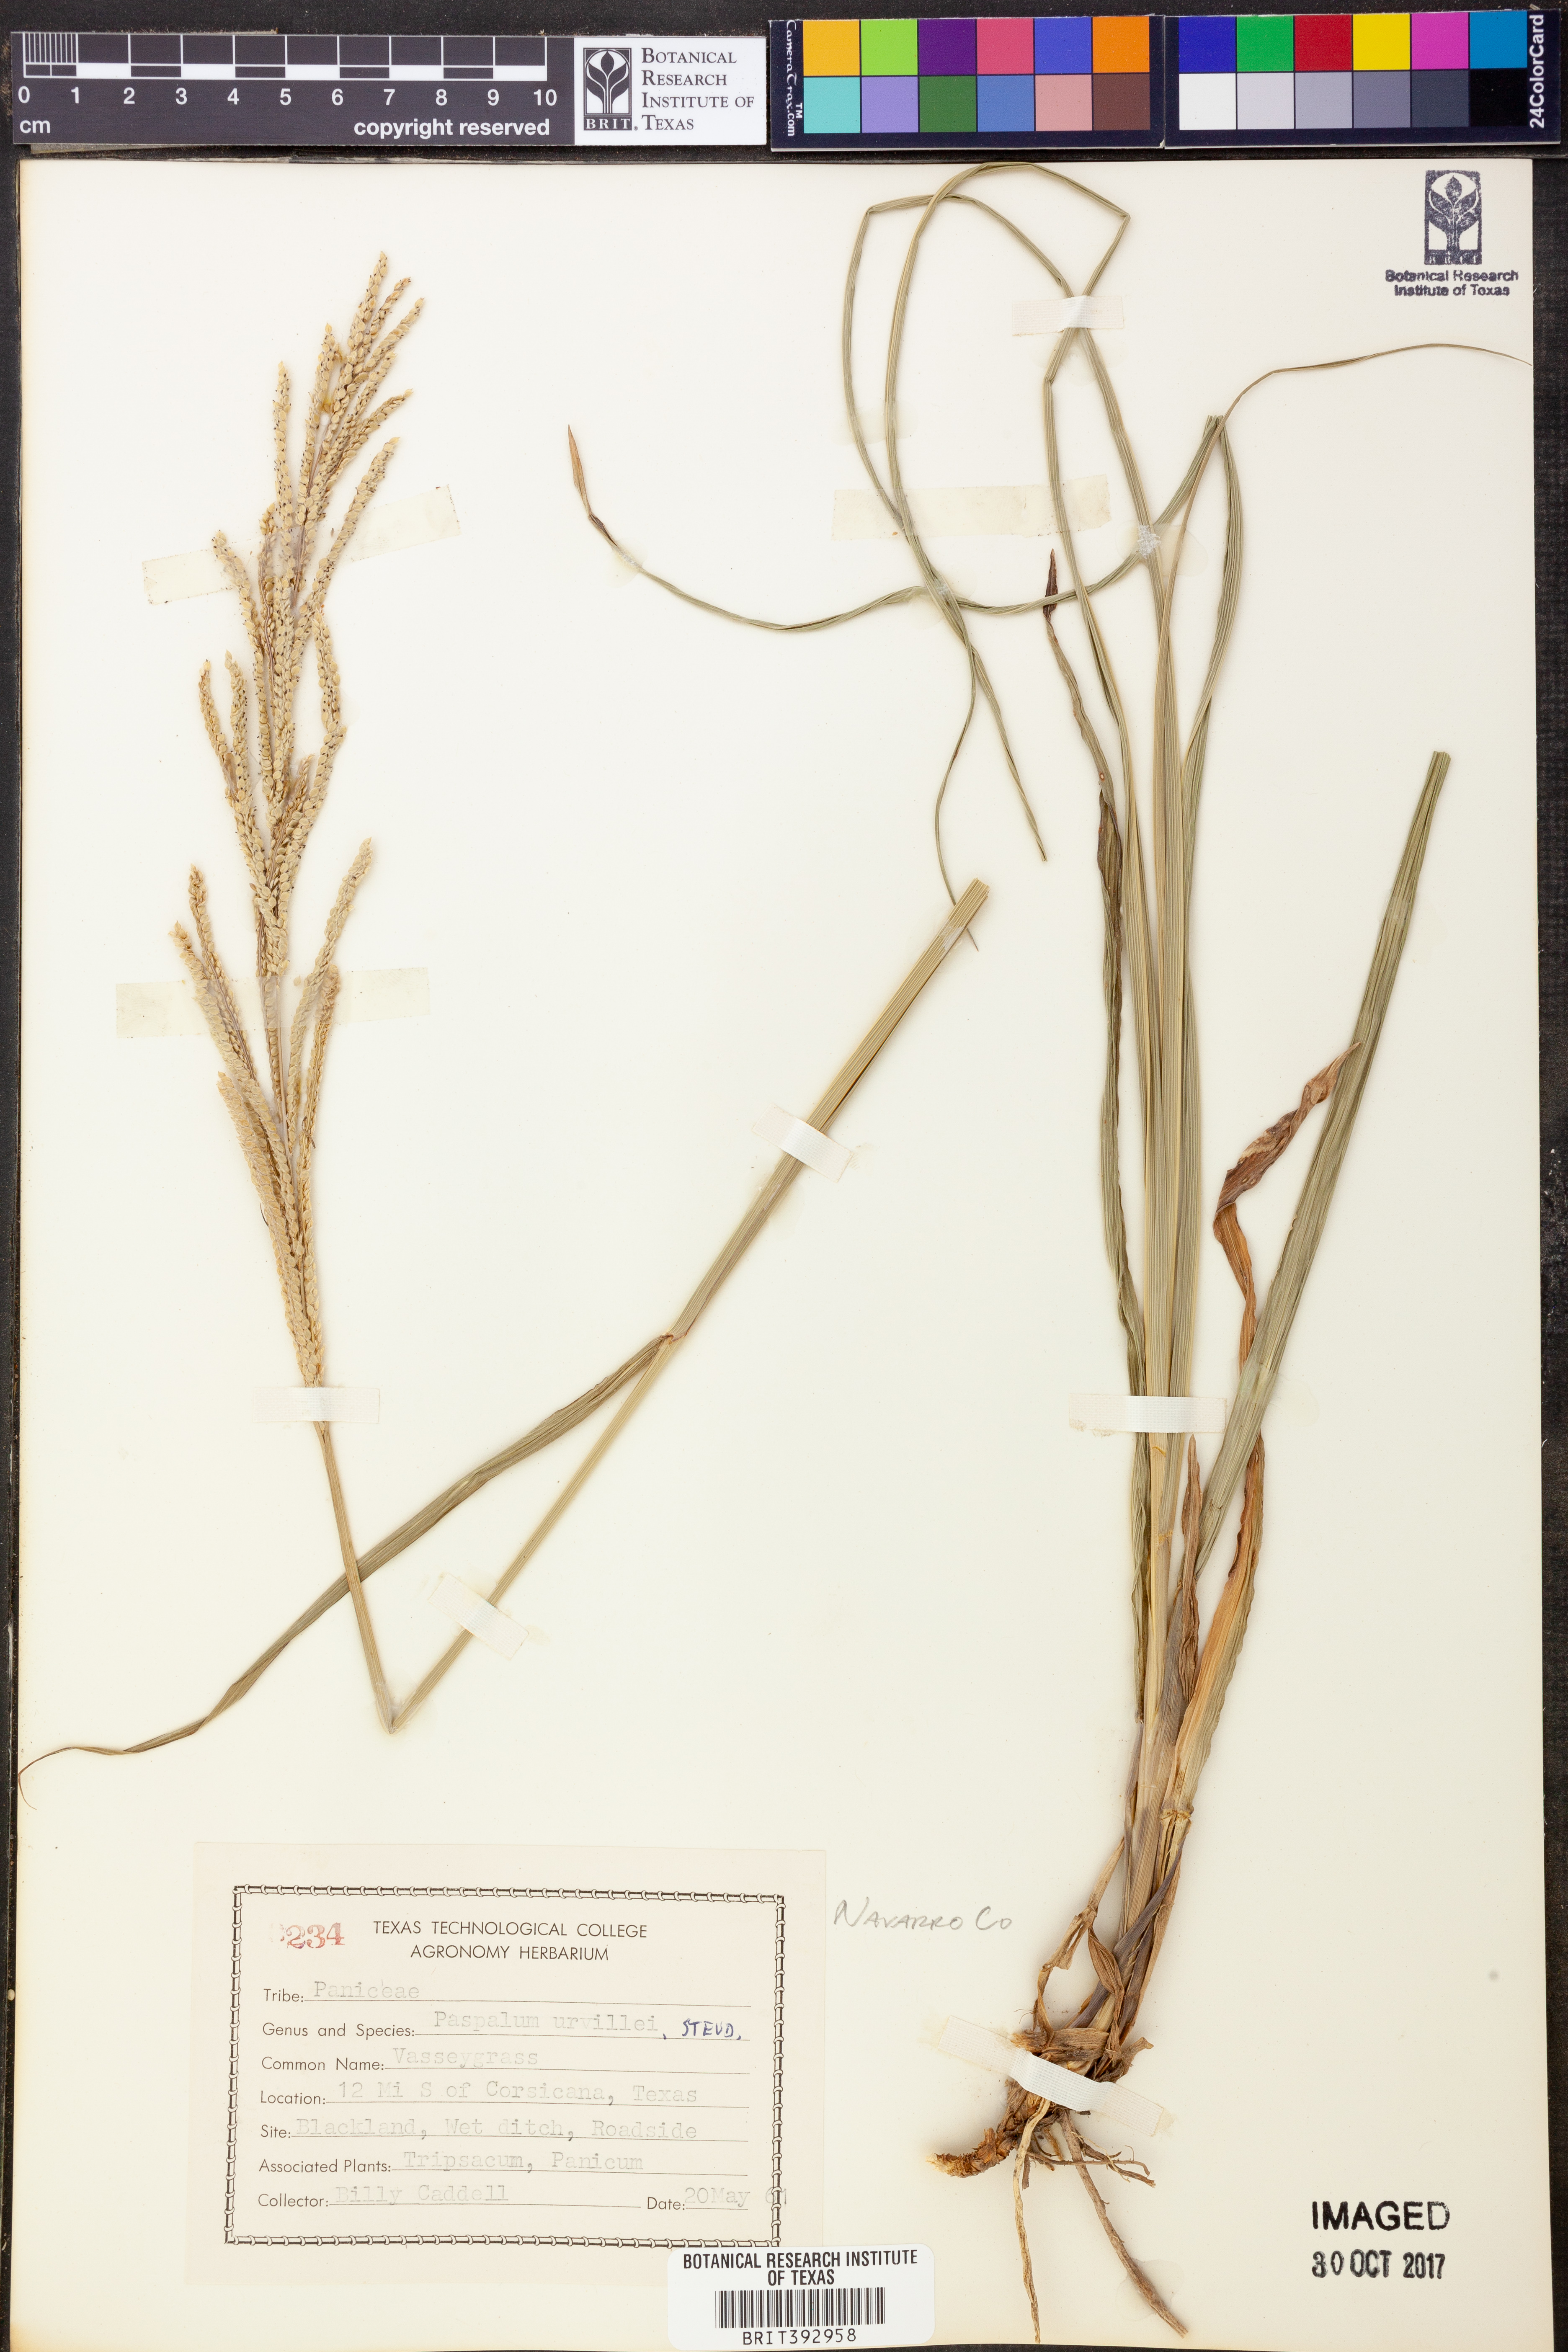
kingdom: Plantae
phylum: Tracheophyta
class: Liliopsida
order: Poales
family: Poaceae
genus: Paspalum
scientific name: Paspalum urvillei
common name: Vasey's grass
